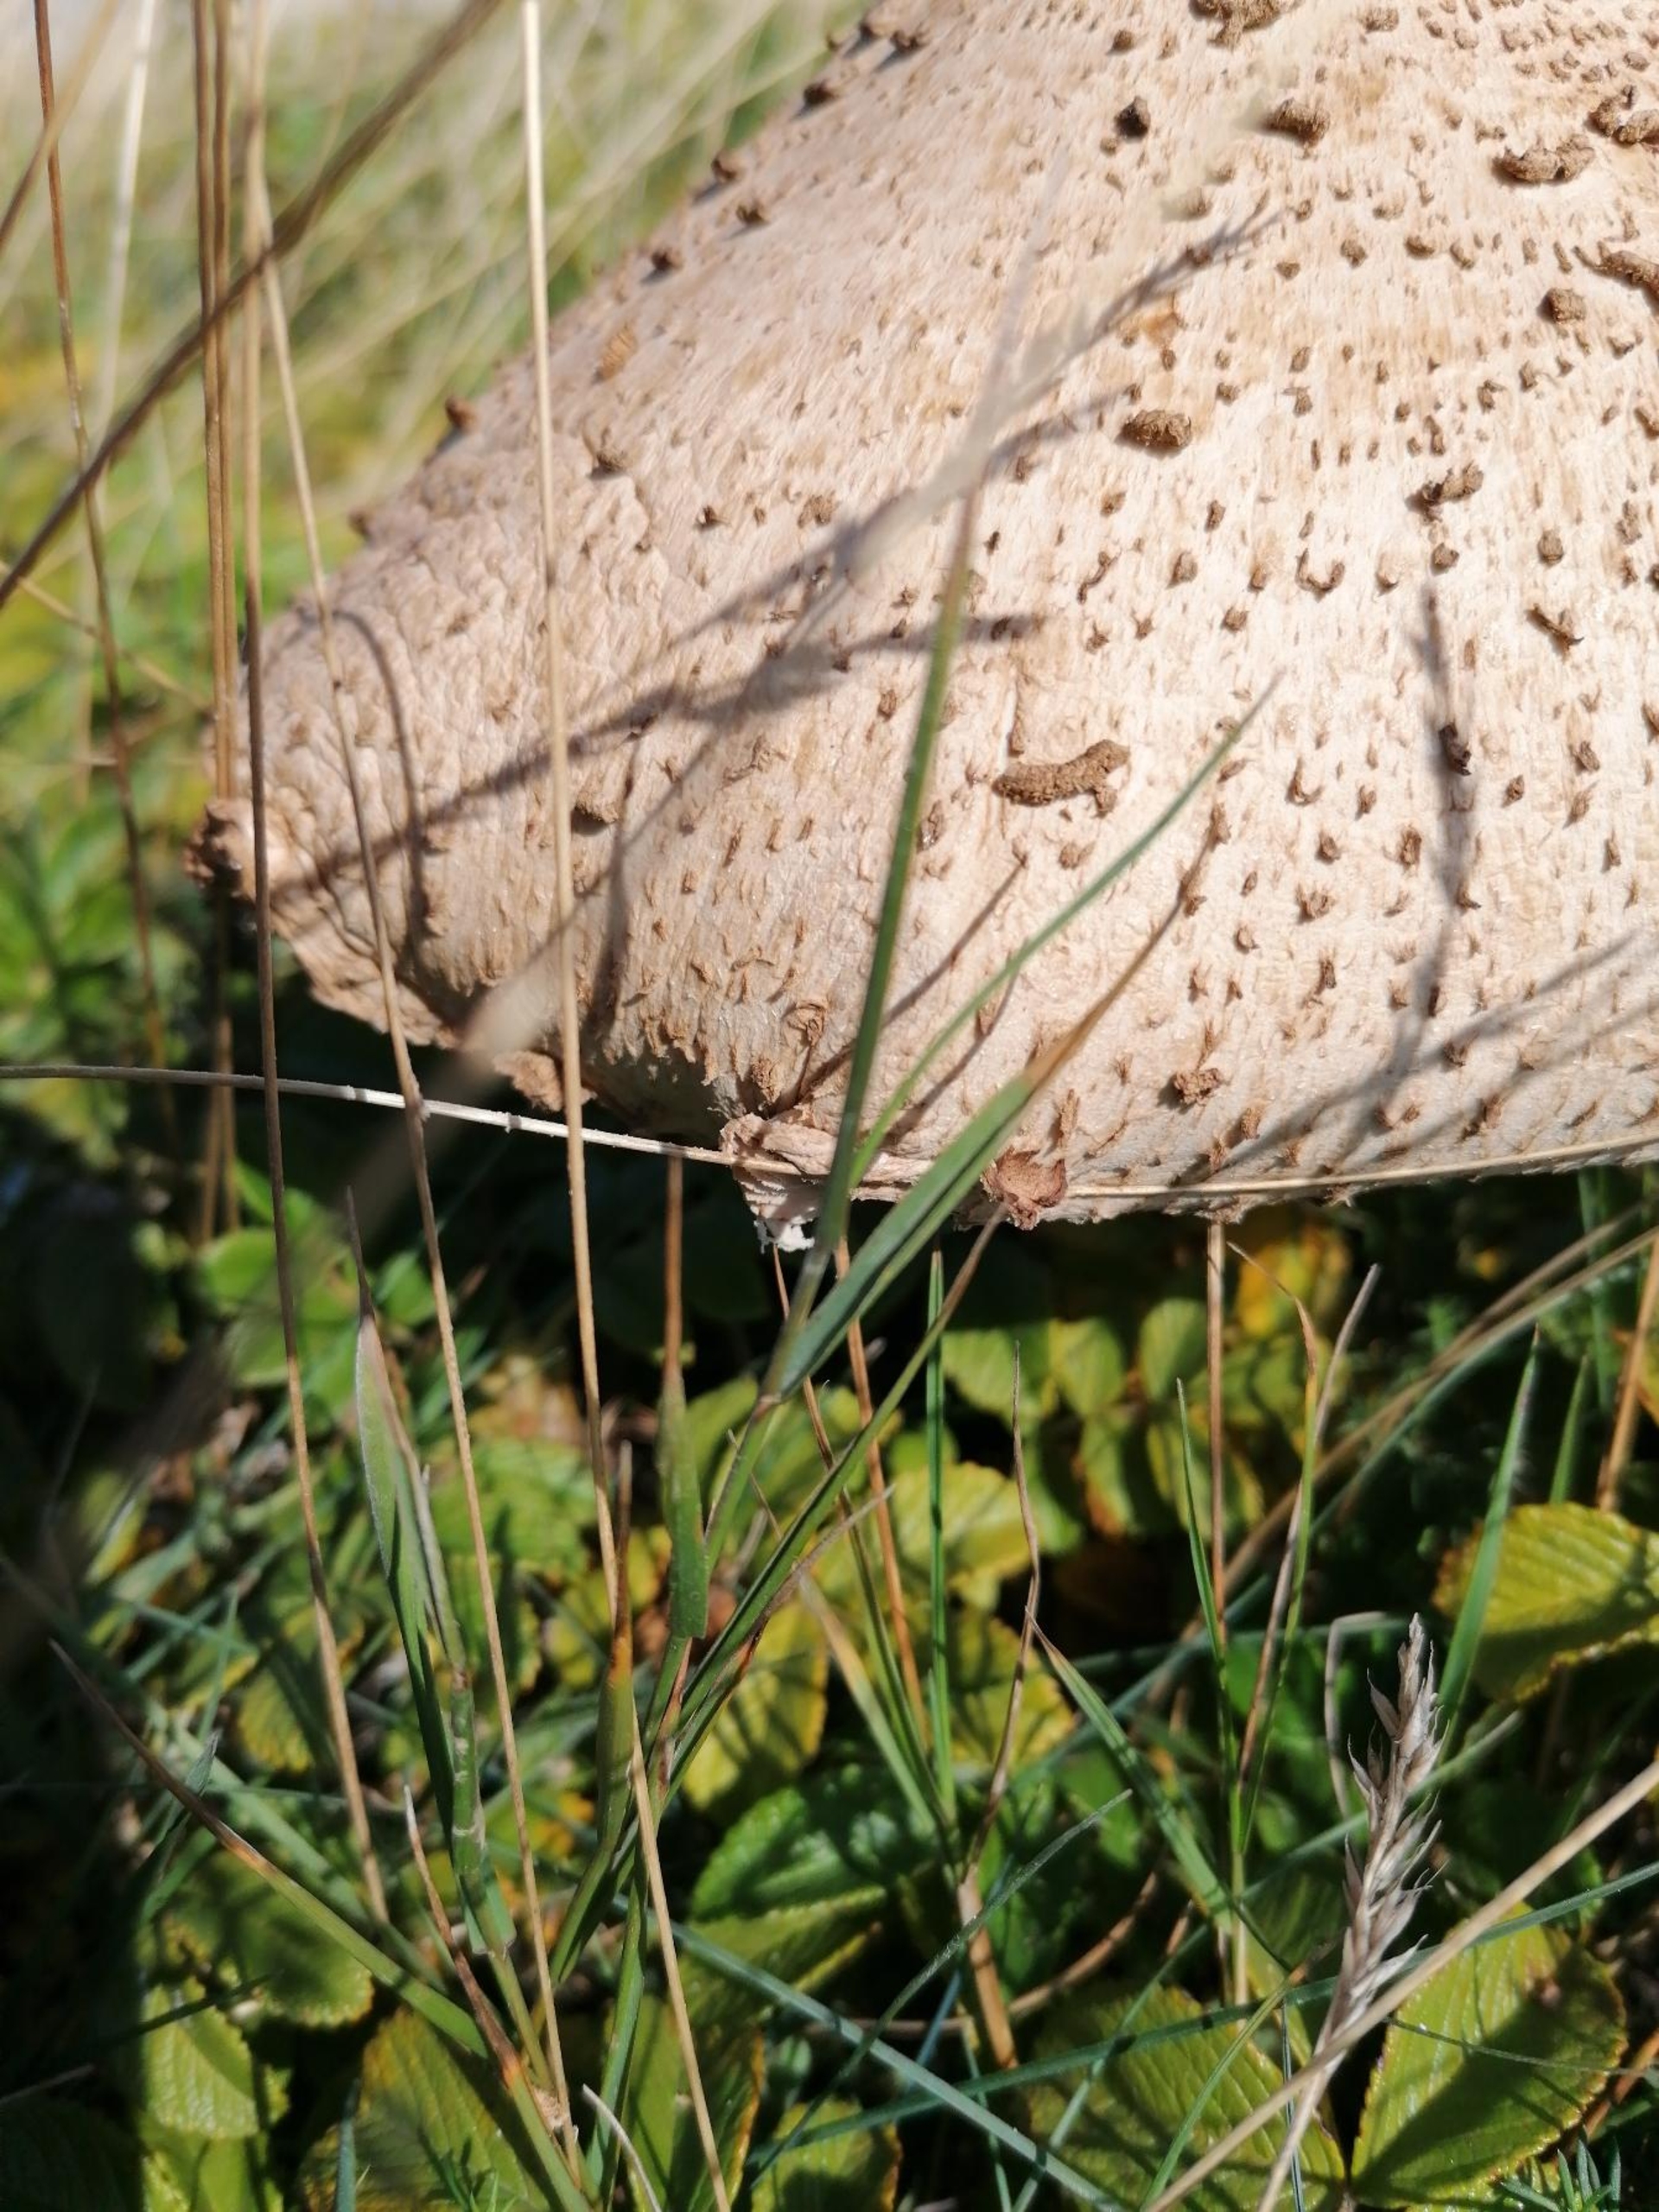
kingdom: Fungi
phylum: Basidiomycota
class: Agaricomycetes
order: Agaricales
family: Agaricaceae
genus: Macrolepiota
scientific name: Macrolepiota
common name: Kæmpeparasolhat
